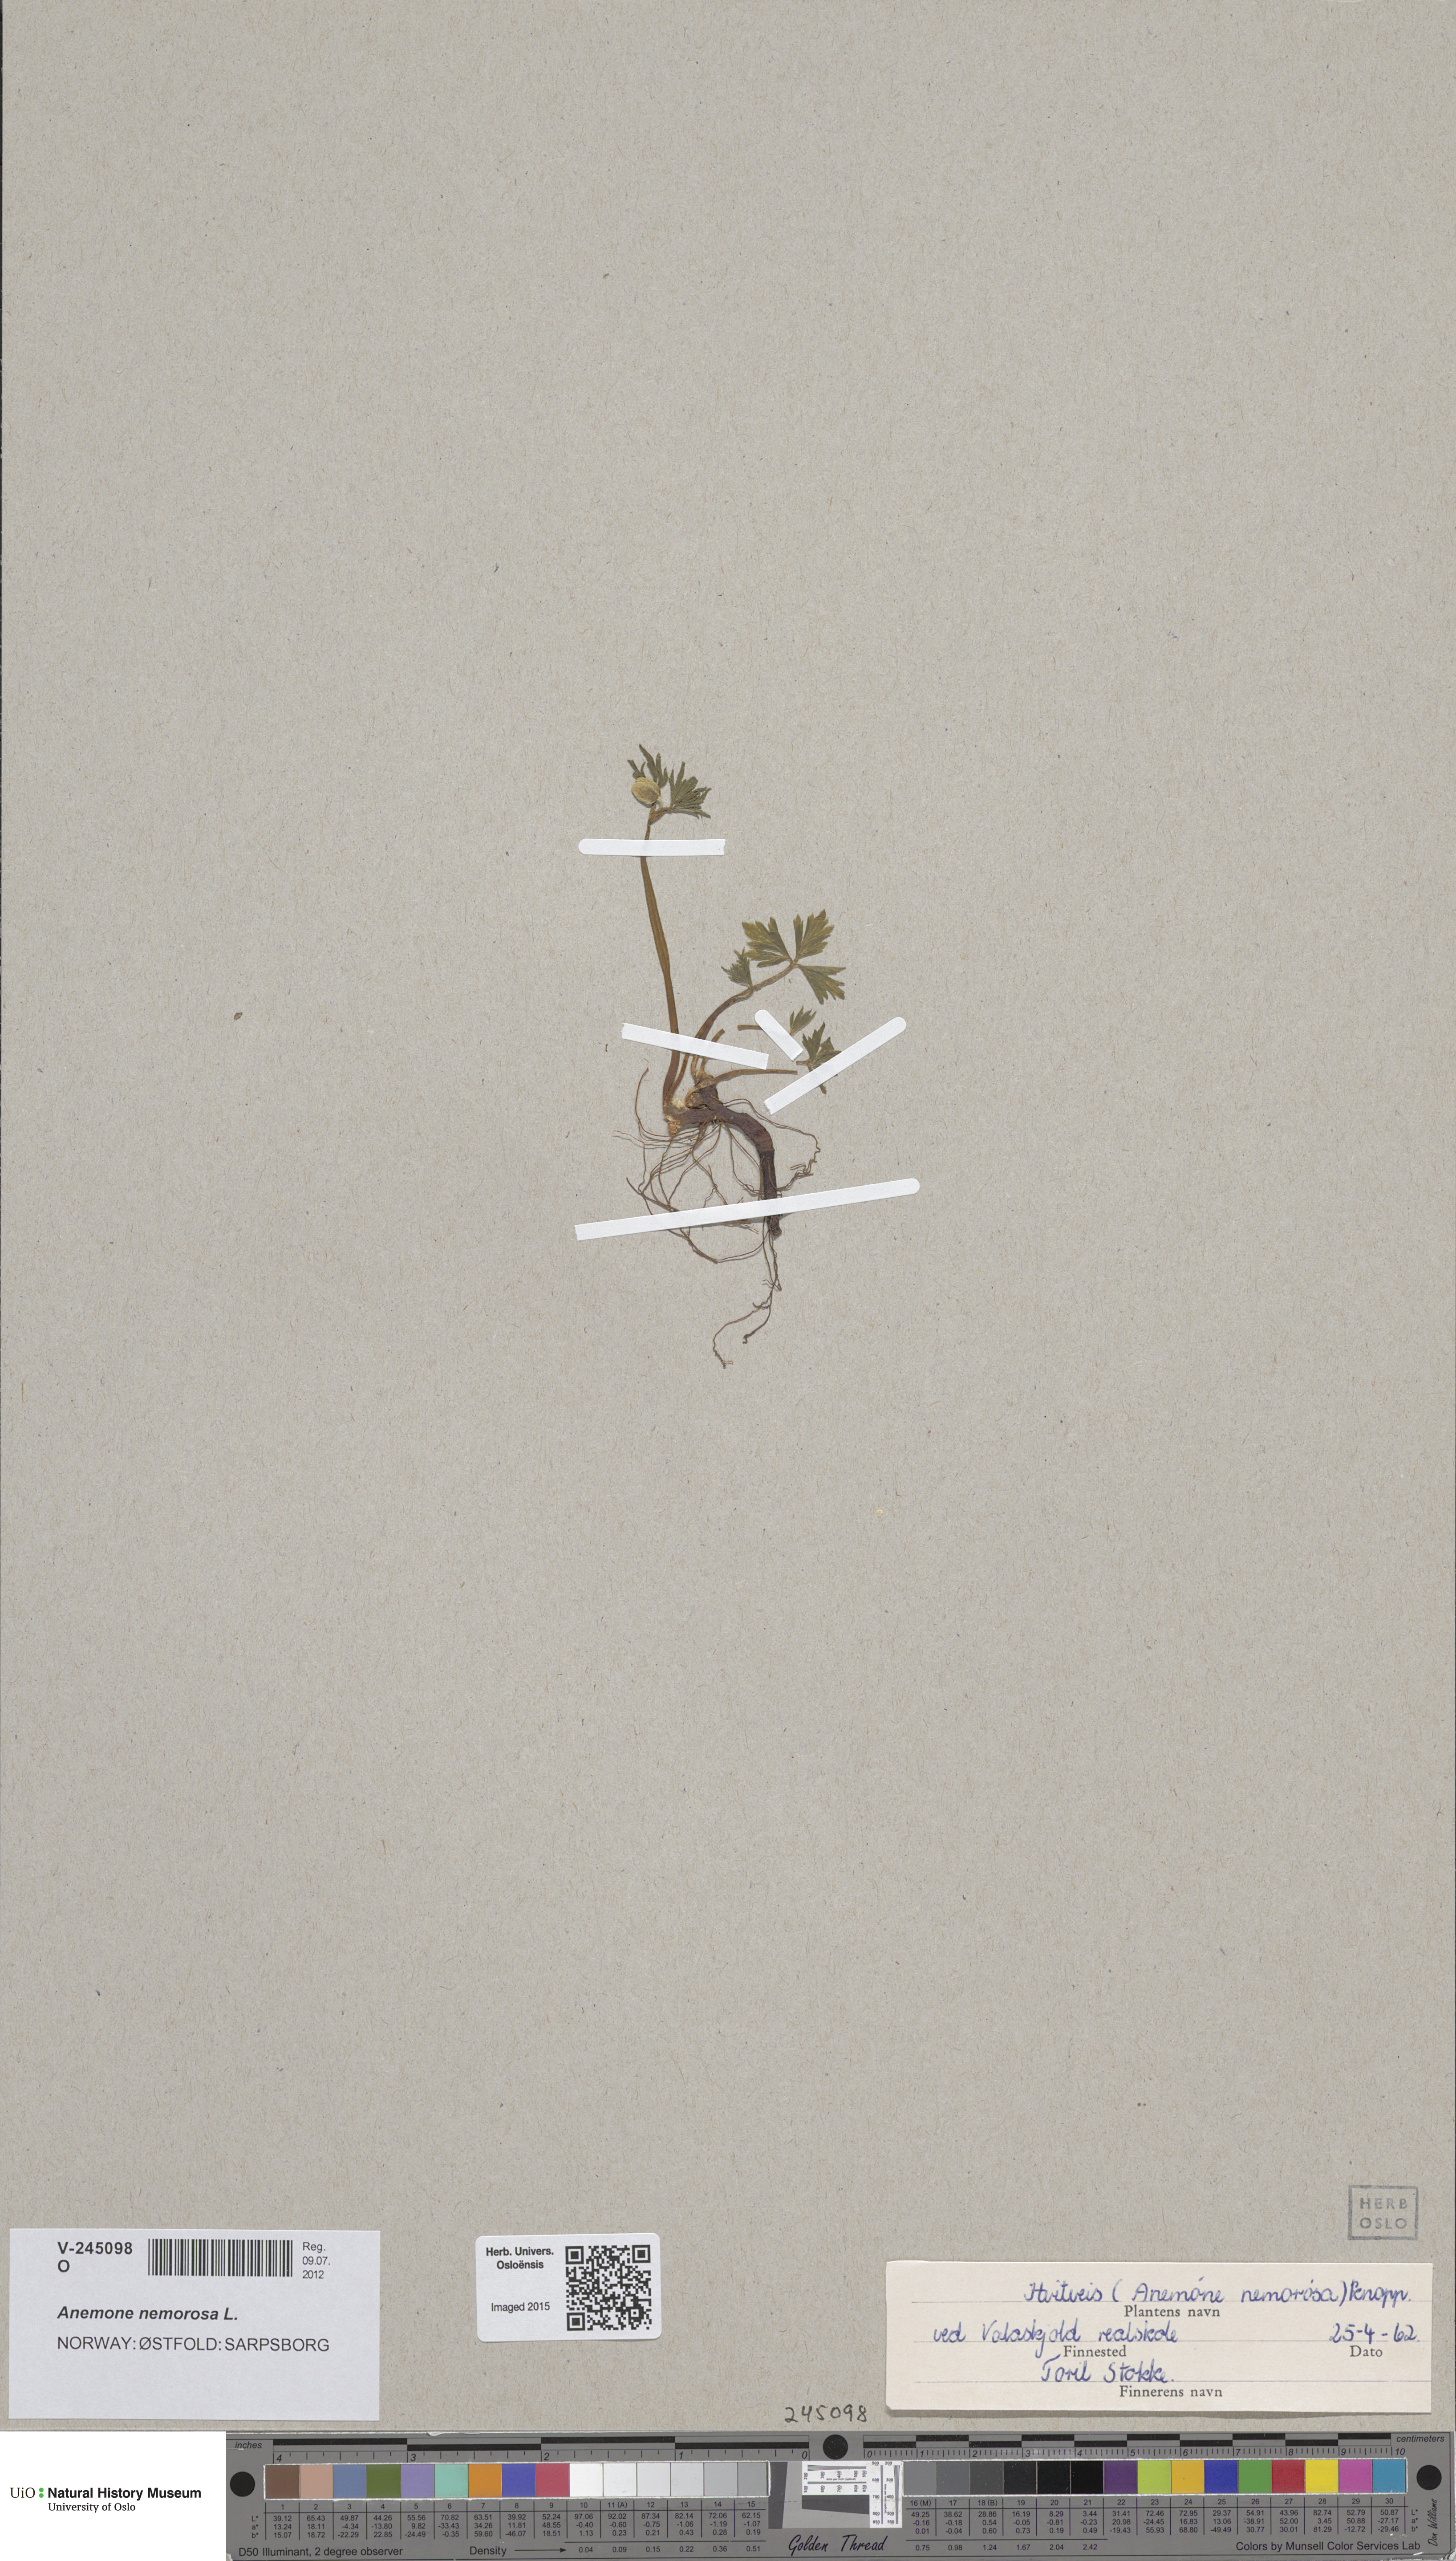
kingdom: Plantae
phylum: Tracheophyta
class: Magnoliopsida
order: Ranunculales
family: Ranunculaceae
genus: Anemone
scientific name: Anemone nemorosa
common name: Wood anemone
